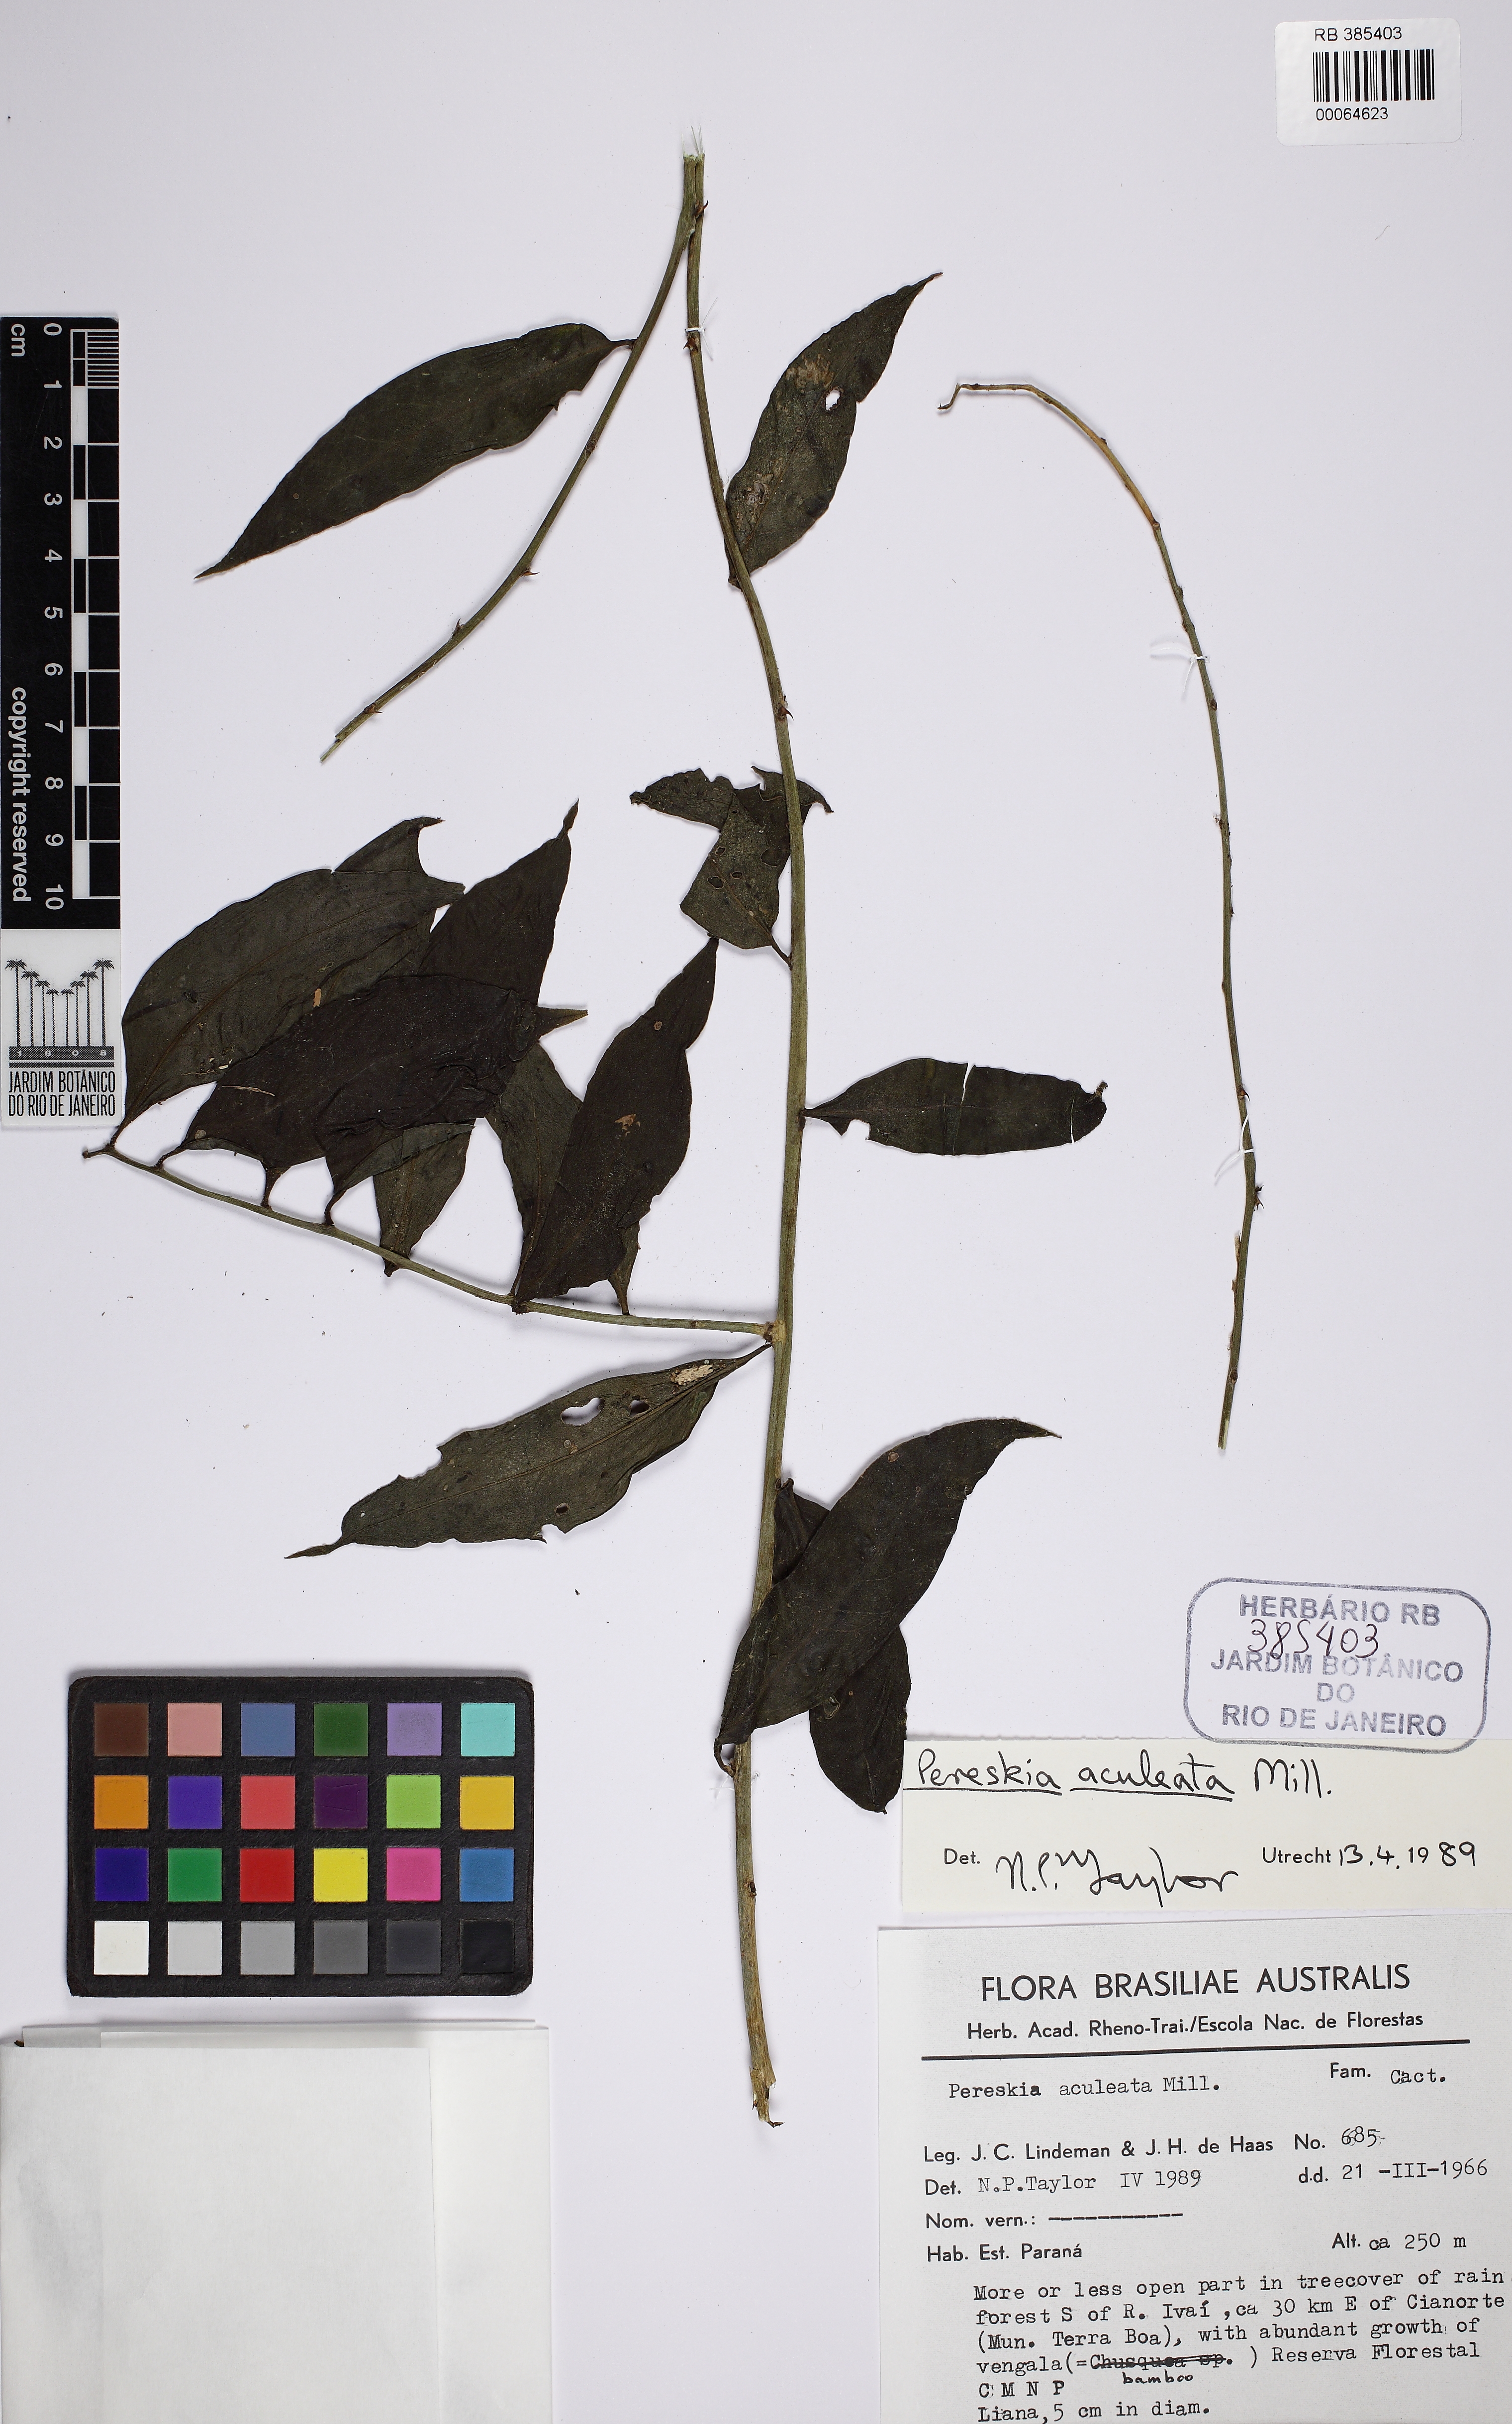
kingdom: Plantae
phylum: Tracheophyta
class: Magnoliopsida
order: Caryophyllales
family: Cactaceae
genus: Pereskia
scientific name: Pereskia aculeata
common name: Barbados gooseberry
